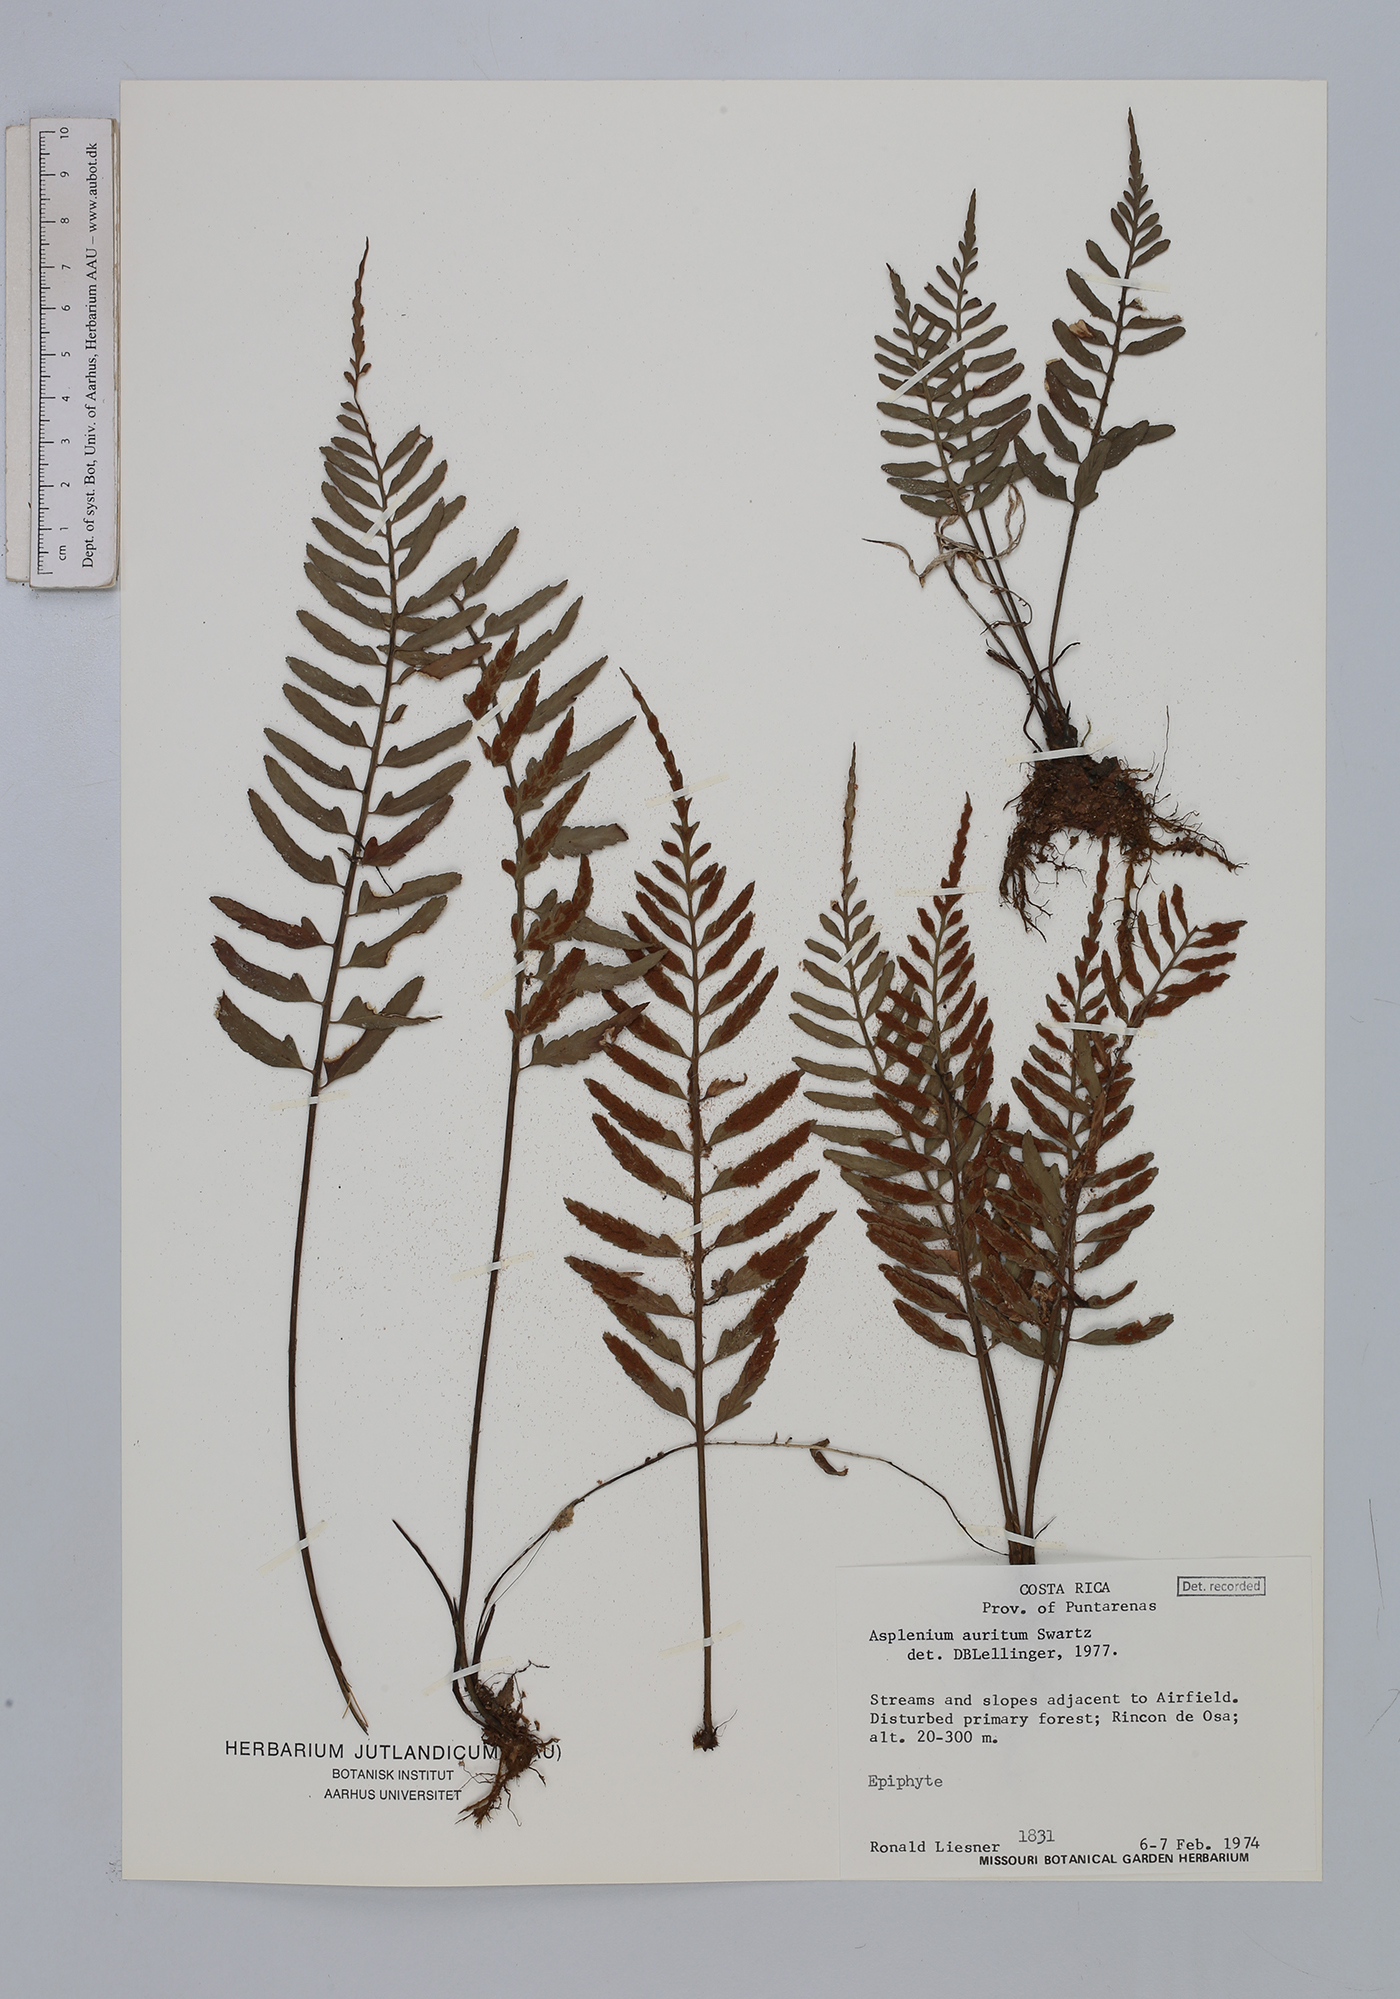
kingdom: Plantae
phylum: Tracheophyta
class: Polypodiopsida
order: Polypodiales
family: Aspleniaceae
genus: Asplenium
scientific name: Asplenium auritum
